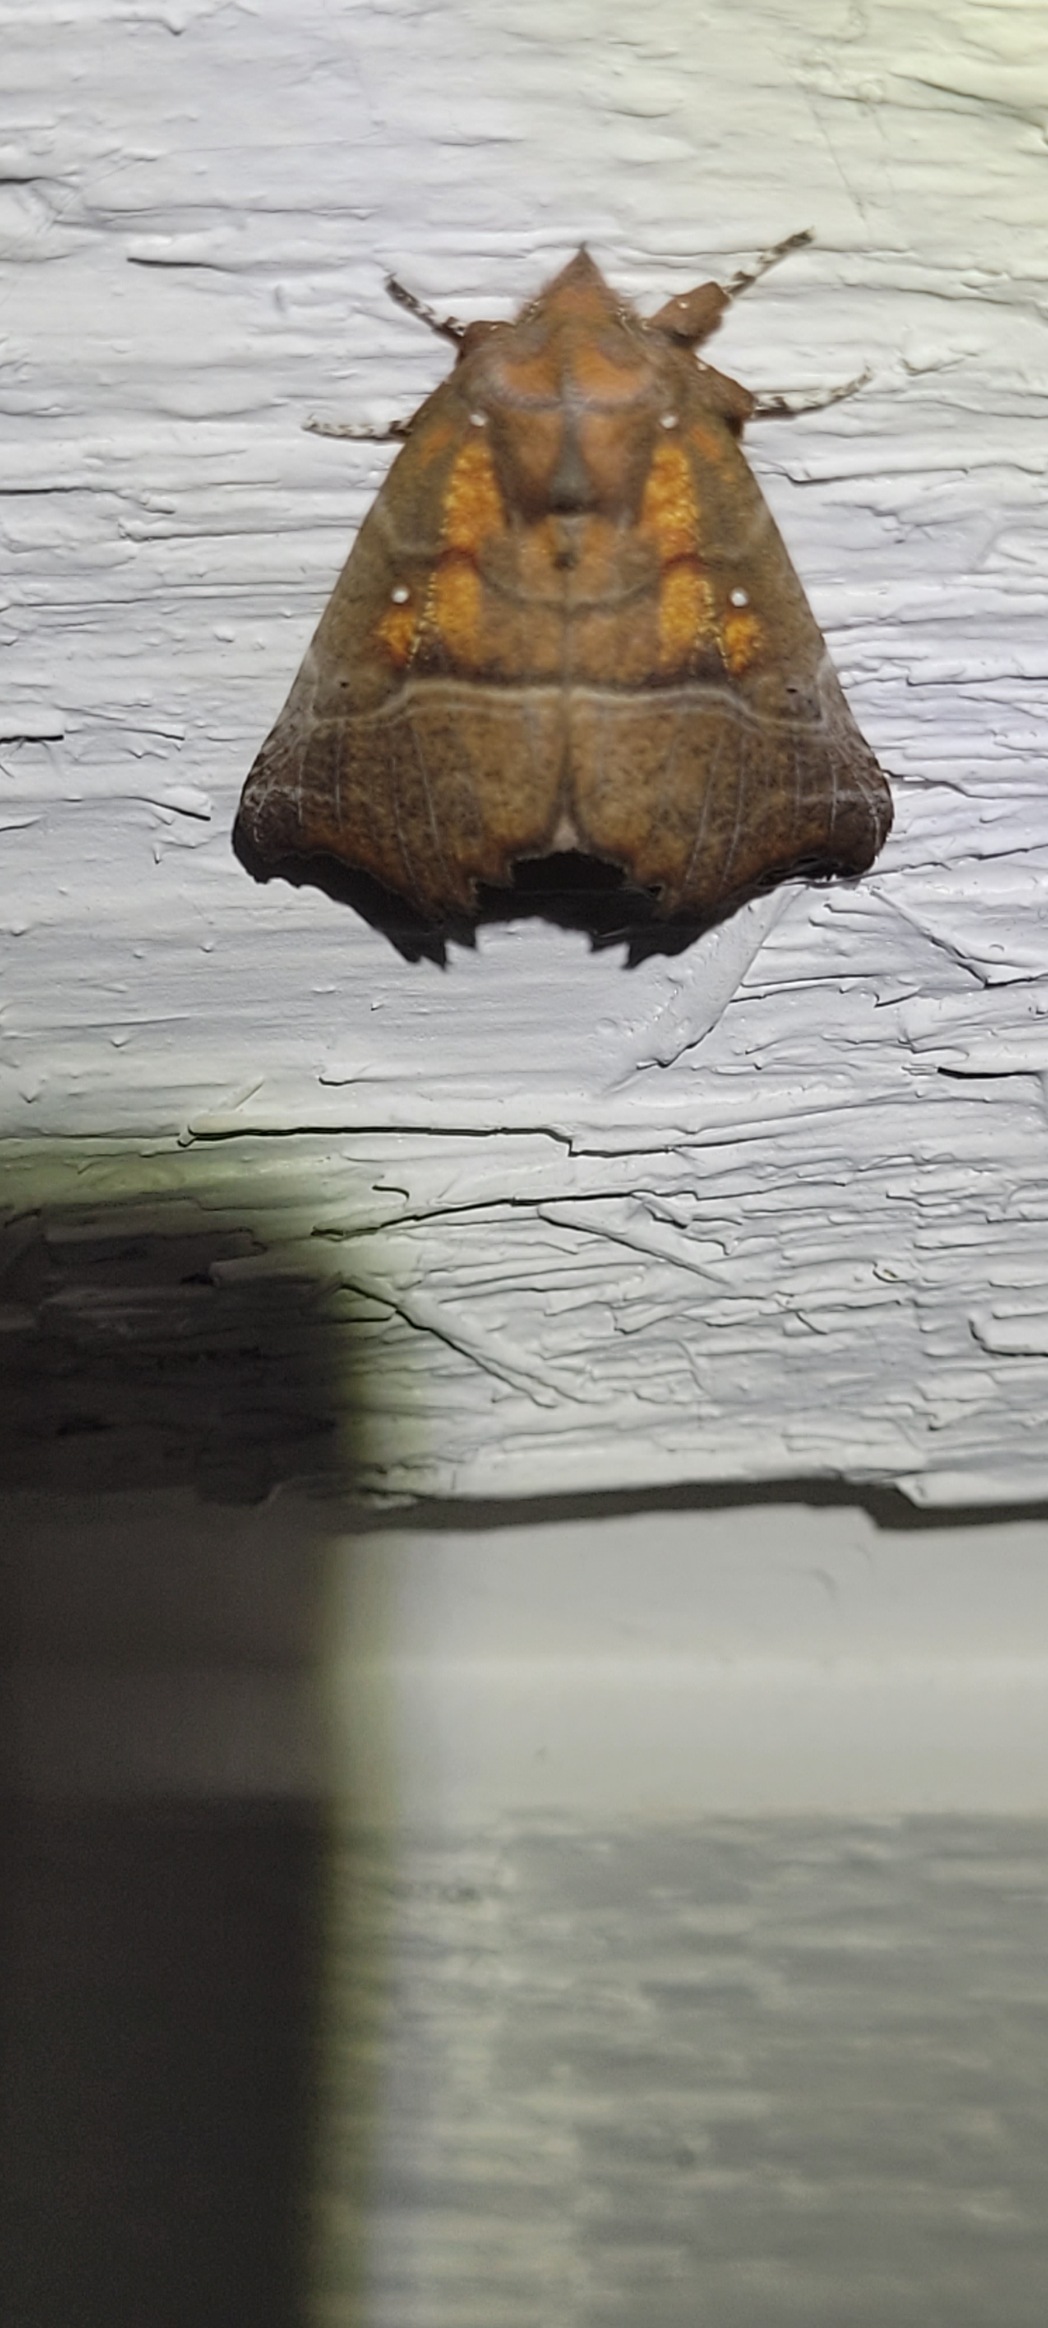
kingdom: Animalia
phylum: Arthropoda
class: Insecta
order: Lepidoptera
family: Erebidae
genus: Scoliopteryx
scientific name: Scoliopteryx libatrix
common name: Husmoderugle
